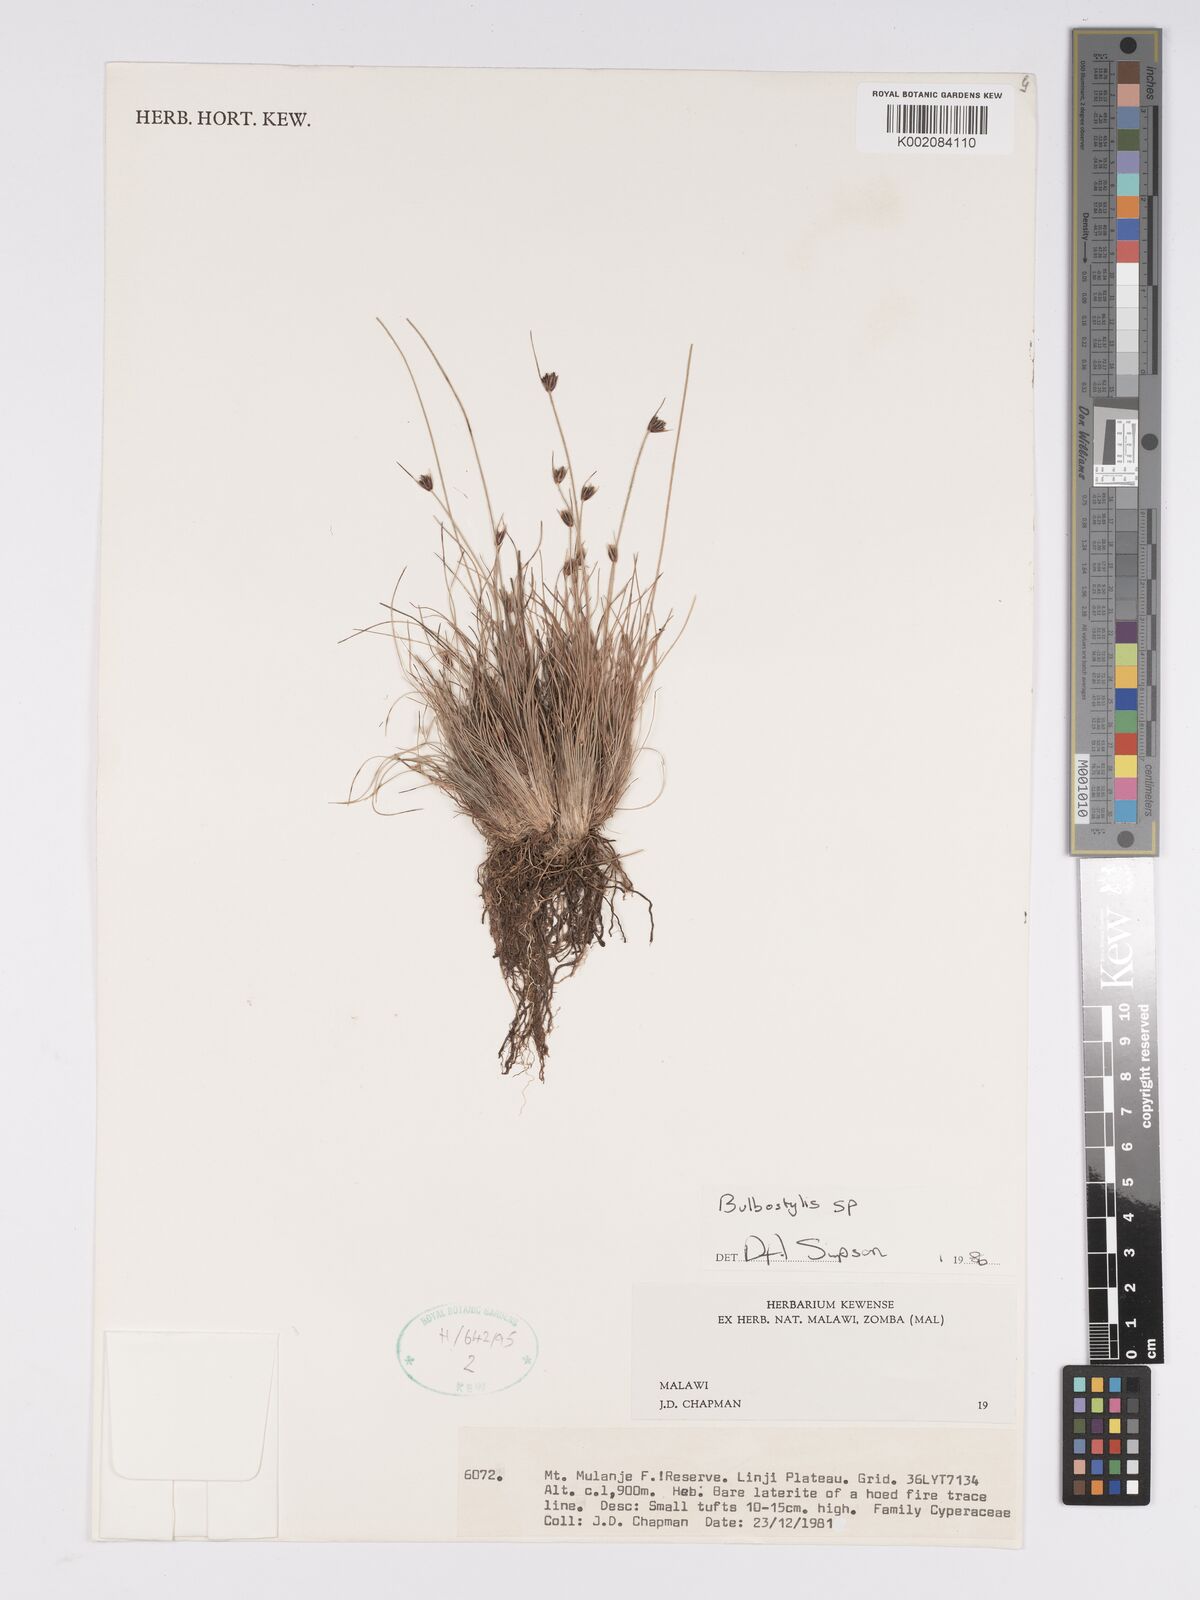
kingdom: Plantae
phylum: Tracheophyta
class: Liliopsida
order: Poales
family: Cyperaceae
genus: Bulbostylis
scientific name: Bulbostylis
